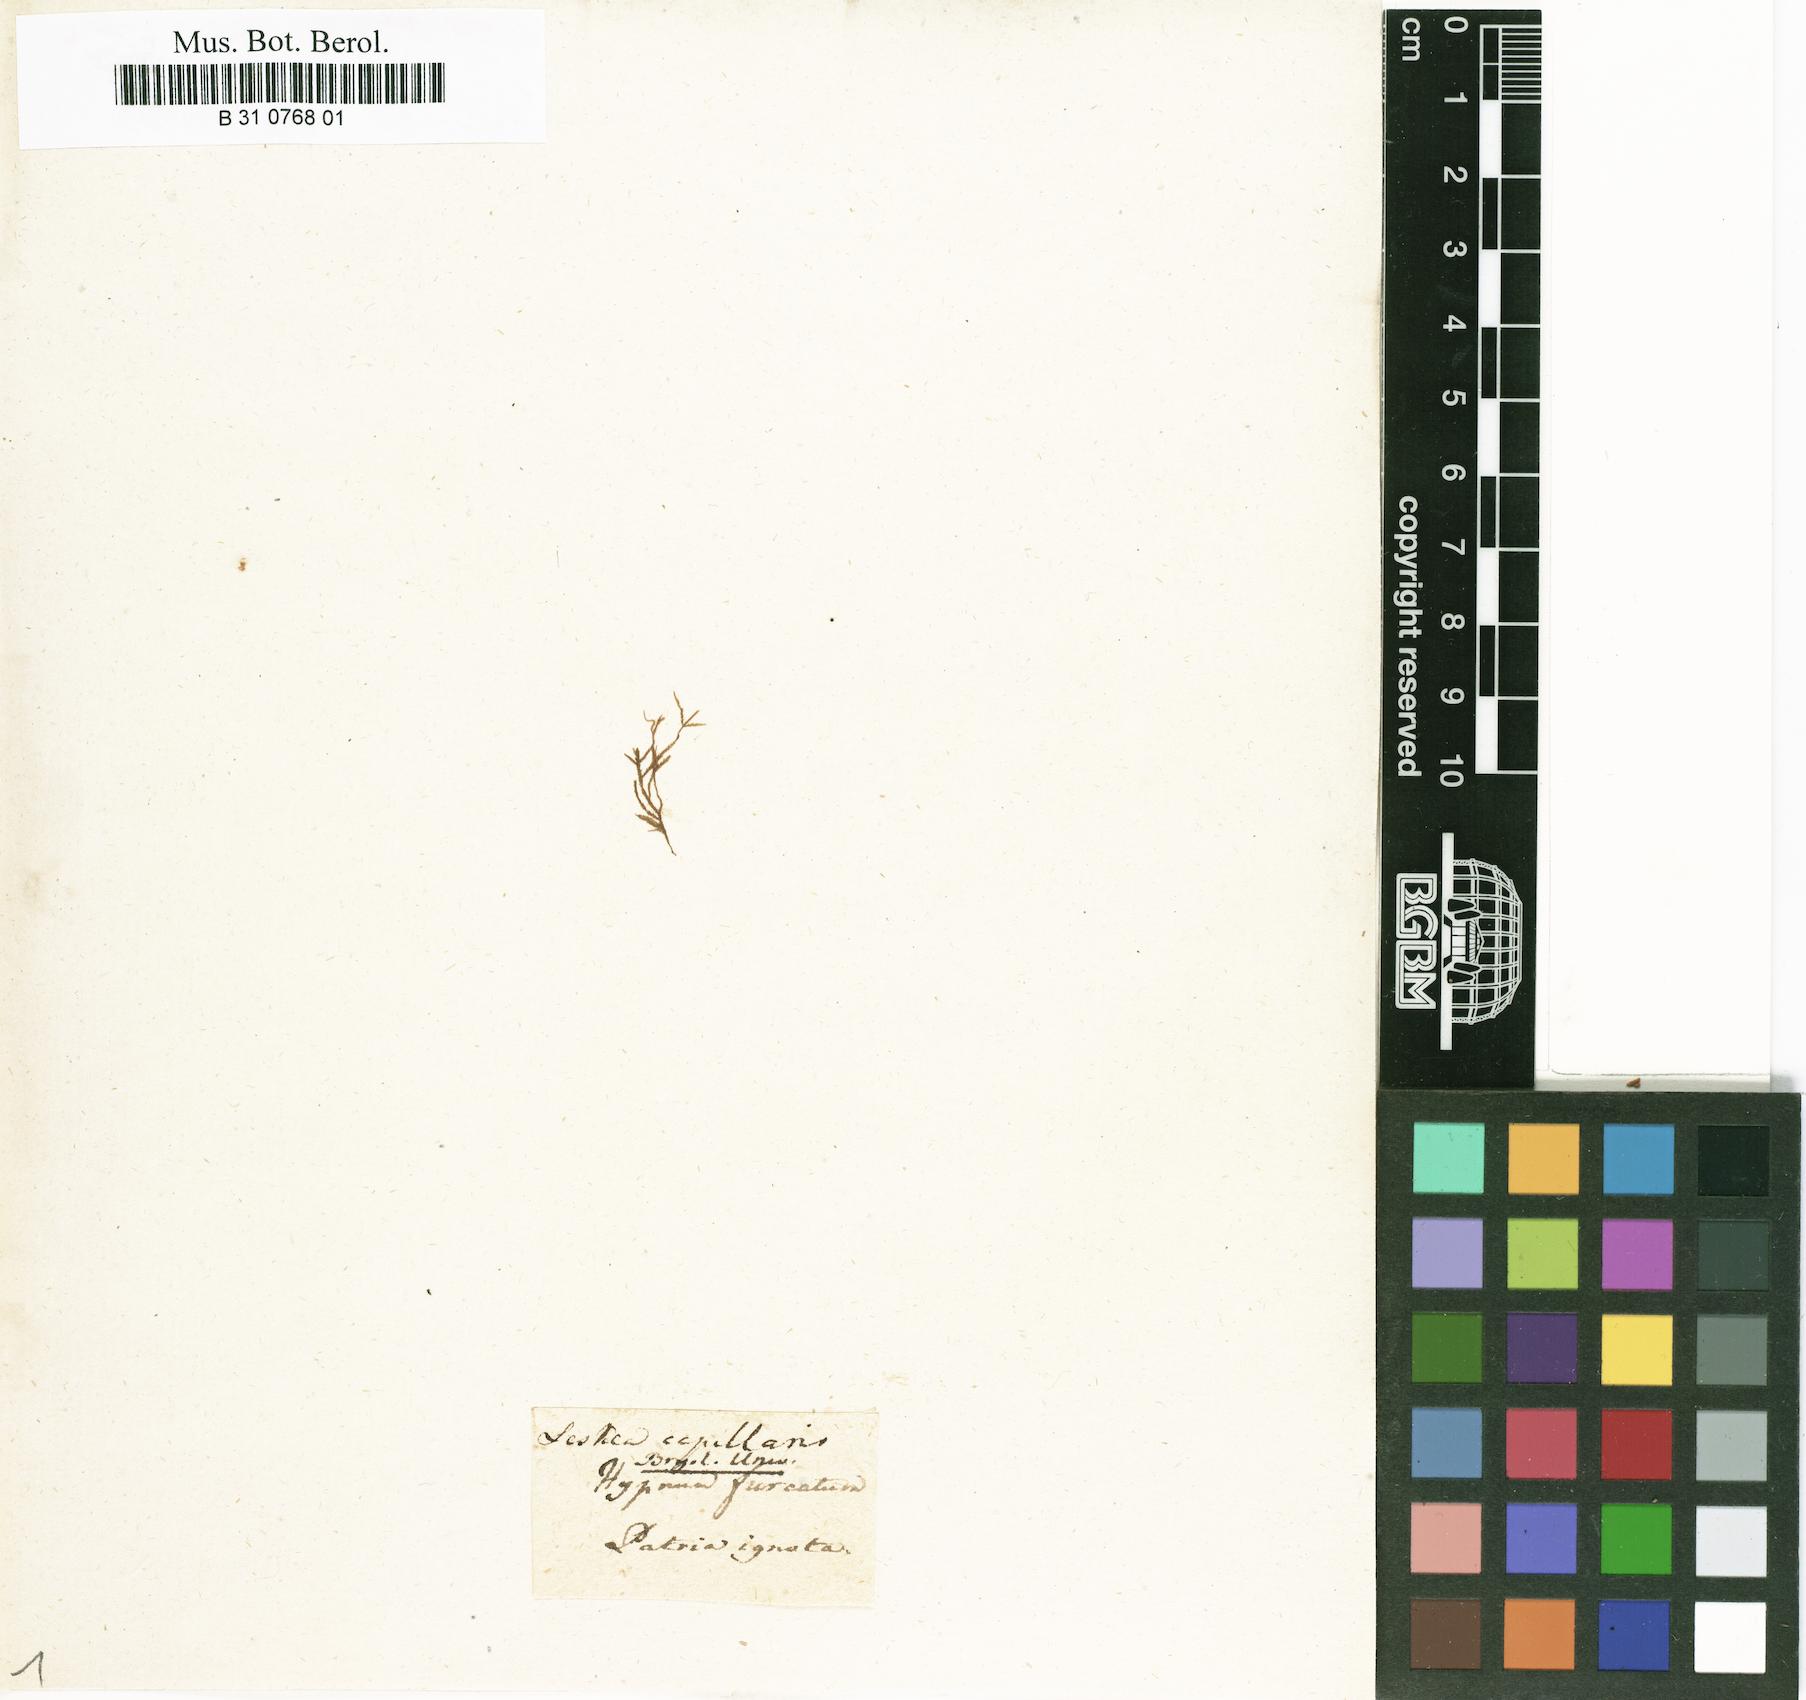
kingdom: Plantae
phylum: Bryophyta
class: Bryopsida
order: Hypnales
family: Brachytheciaceae
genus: Helicodontium
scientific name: Helicodontium capillare
